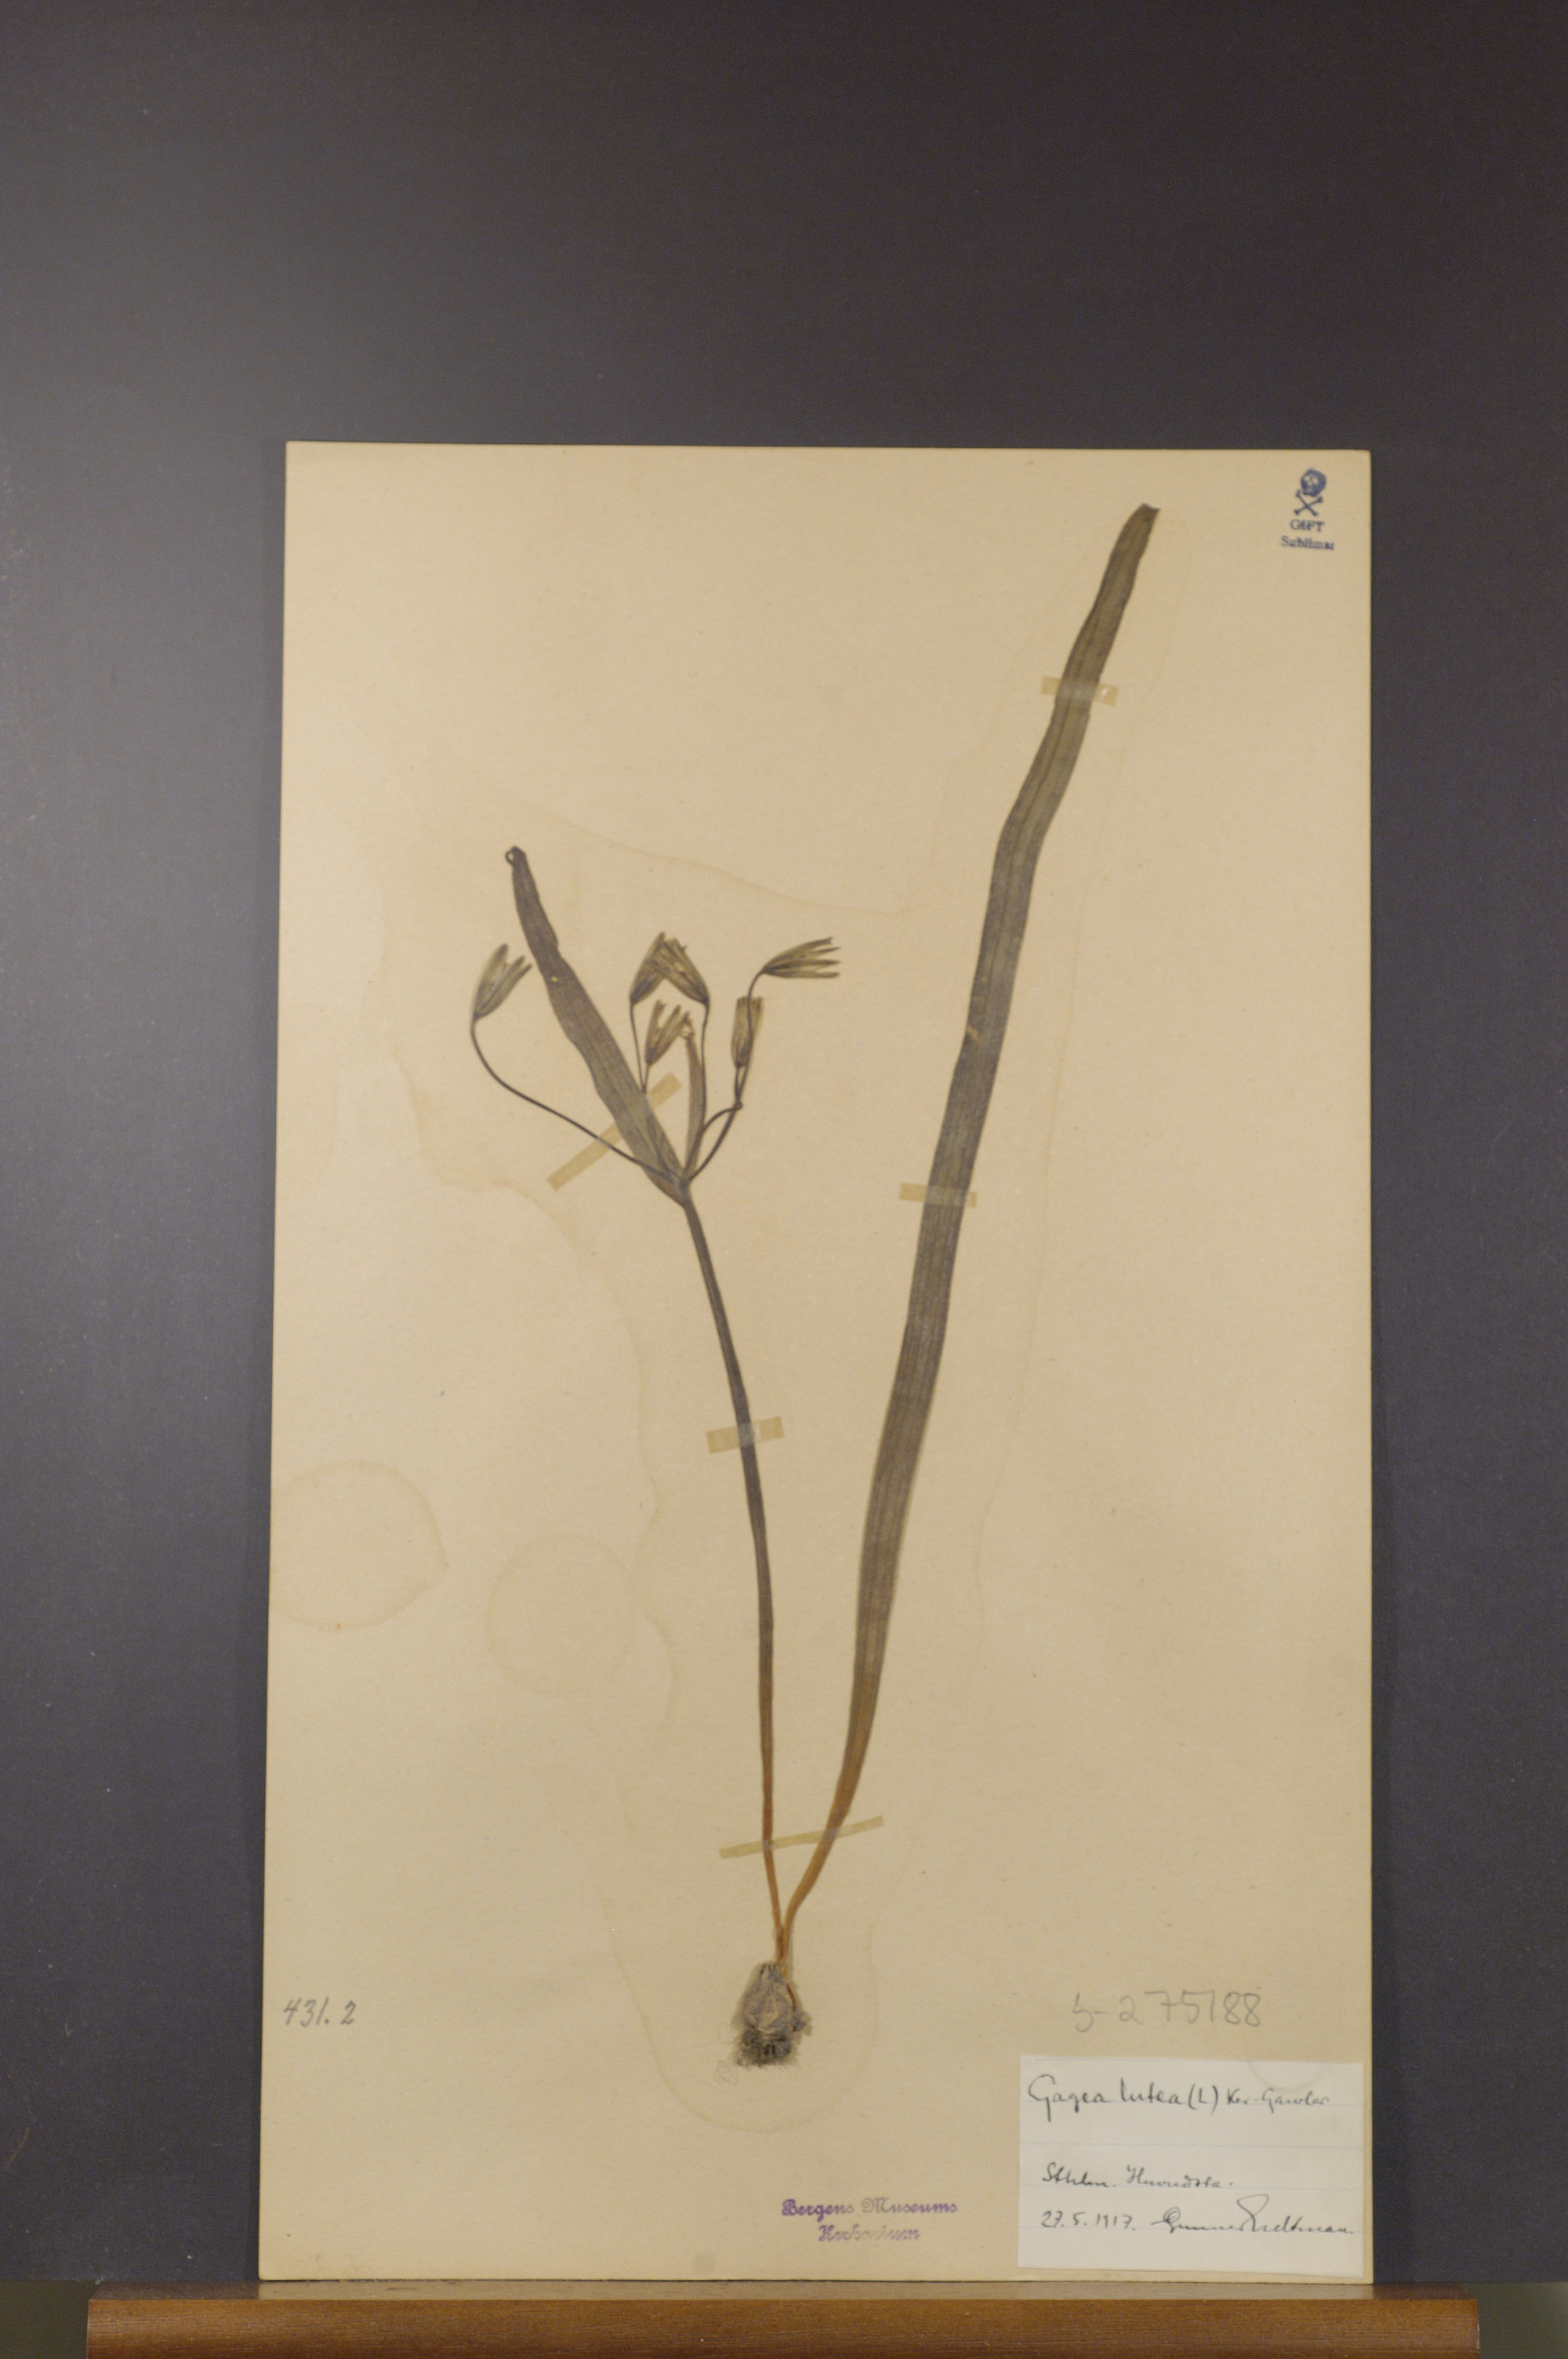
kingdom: Plantae
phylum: Tracheophyta
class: Liliopsida
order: Liliales
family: Liliaceae
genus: Gagea
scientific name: Gagea lutea
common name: Yellow star-of-bethlehem
